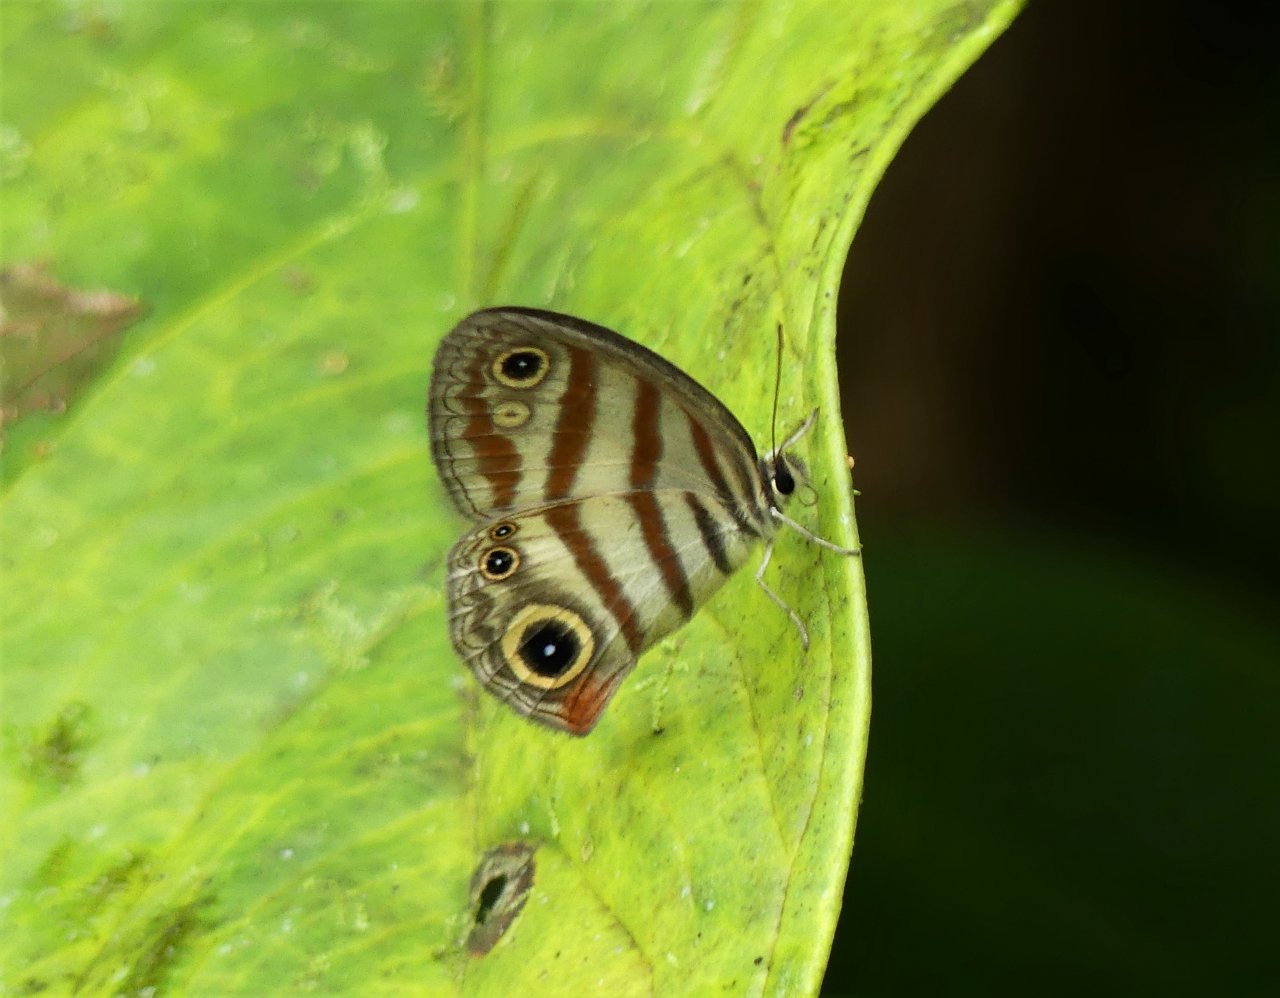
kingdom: Animalia
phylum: Arthropoda
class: Insecta
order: Lepidoptera
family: Nymphalidae
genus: Euptychia
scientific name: Euptychia insolata
